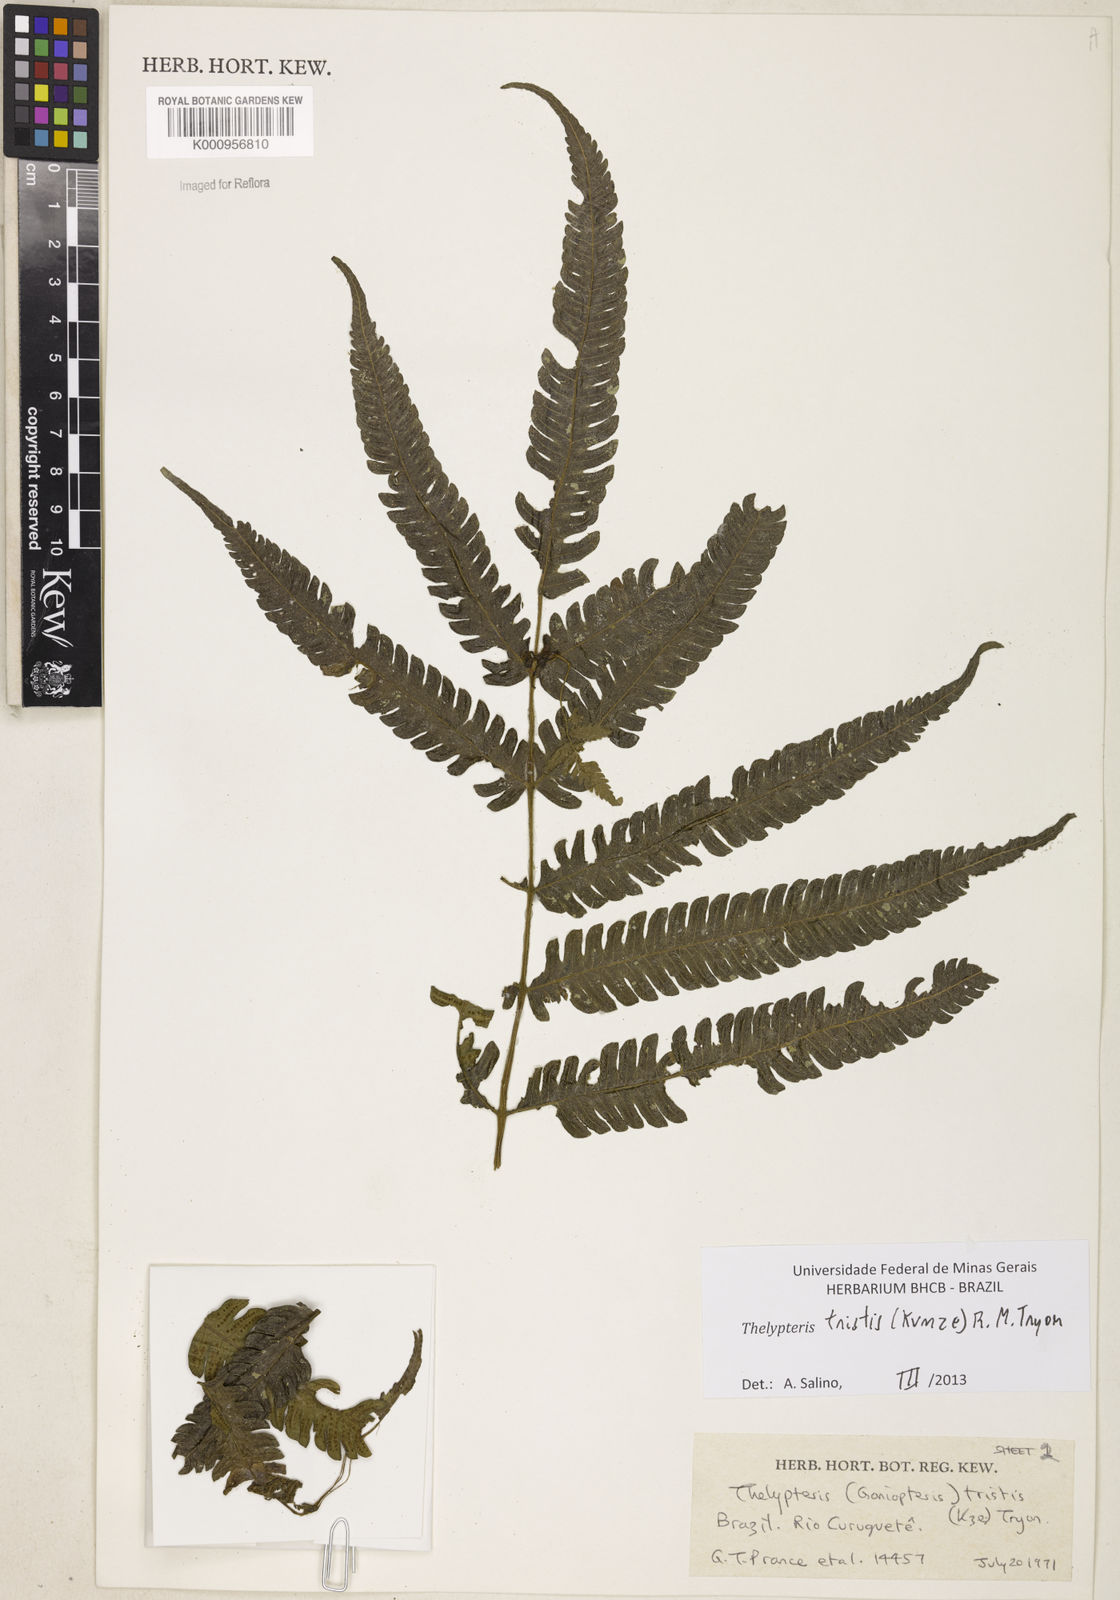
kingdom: Plantae
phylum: Tracheophyta
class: Polypodiopsida
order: Polypodiales
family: Thelypteridaceae
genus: Goniopteris
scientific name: Goniopteris tristis
